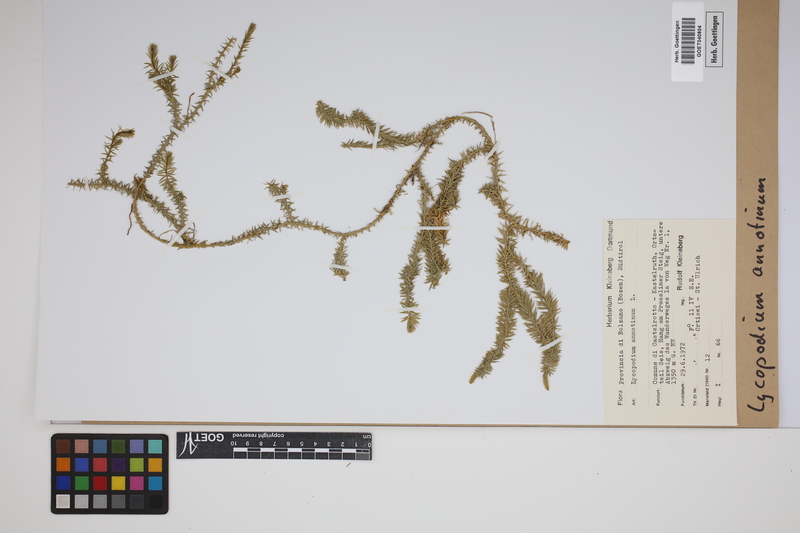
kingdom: Plantae
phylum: Tracheophyta
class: Lycopodiopsida
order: Lycopodiales
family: Lycopodiaceae
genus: Spinulum
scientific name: Spinulum annotinum
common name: Interrupted club-moss
